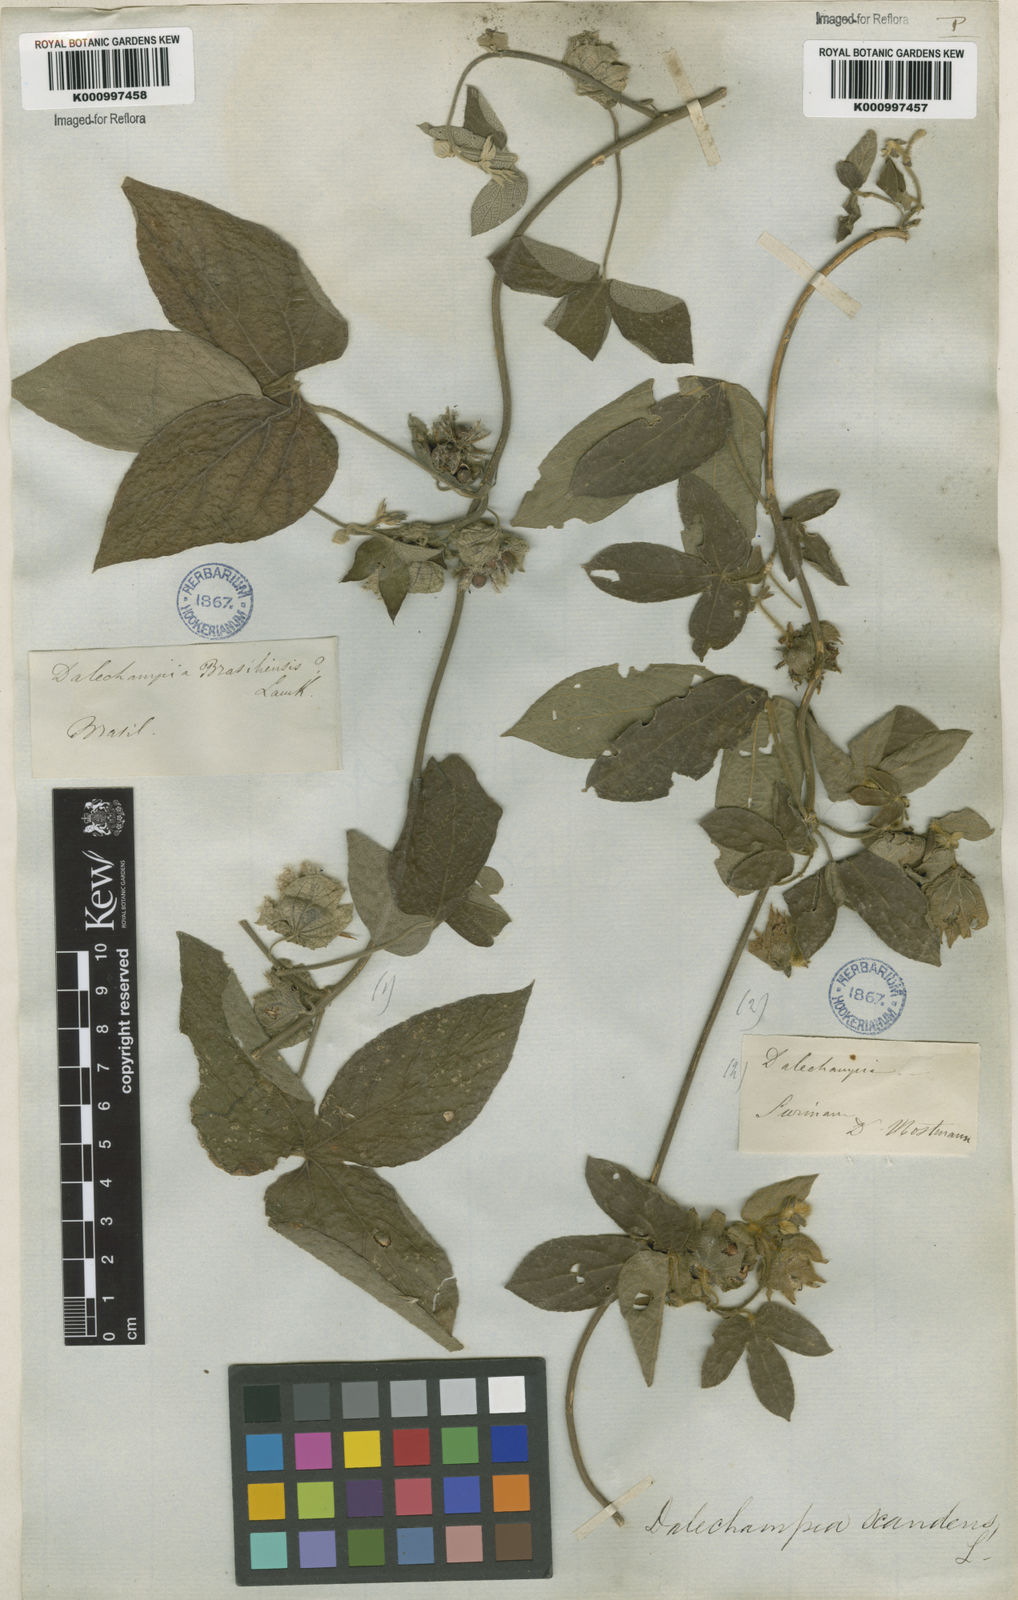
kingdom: Plantae
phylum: Tracheophyta
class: Magnoliopsida
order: Malpighiales
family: Euphorbiaceae
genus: Dalechampia
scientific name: Dalechampia scandens
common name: Spurgecreeper
